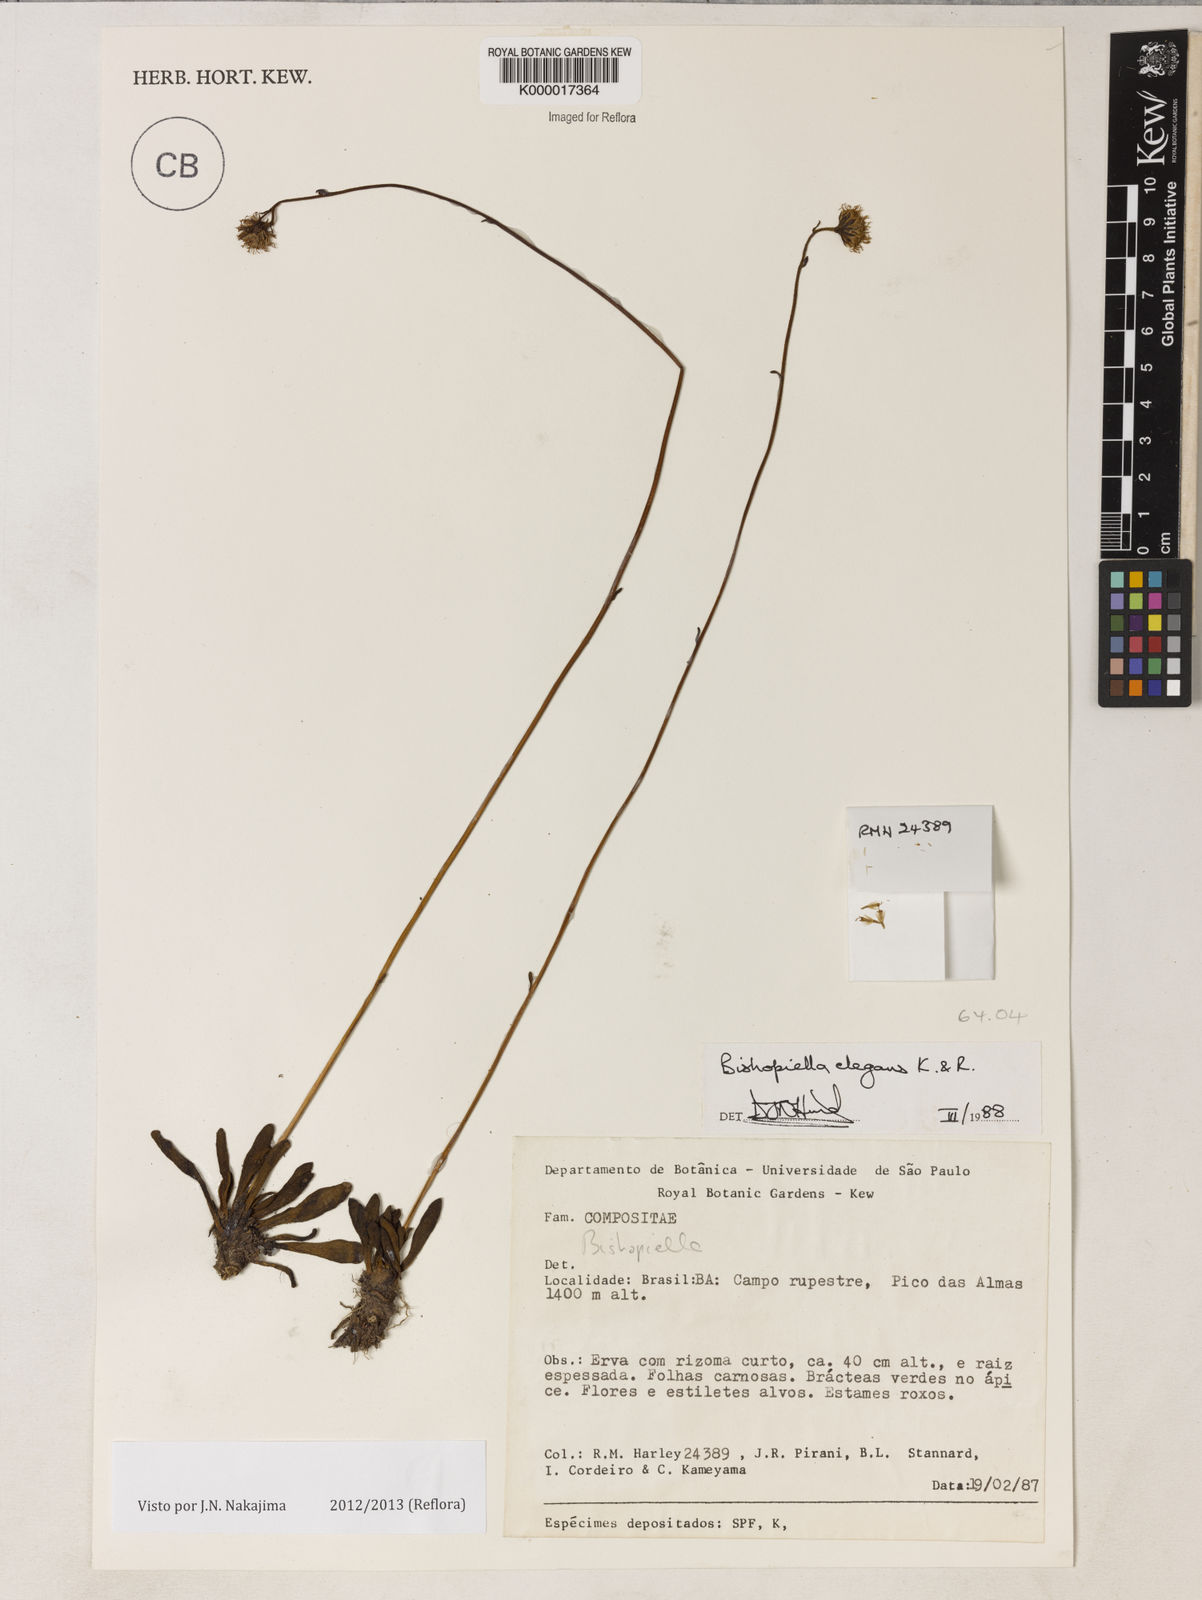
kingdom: Plantae
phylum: Tracheophyta
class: Magnoliopsida
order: Asterales
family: Asteraceae
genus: Bishopiella
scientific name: Bishopiella elegans
